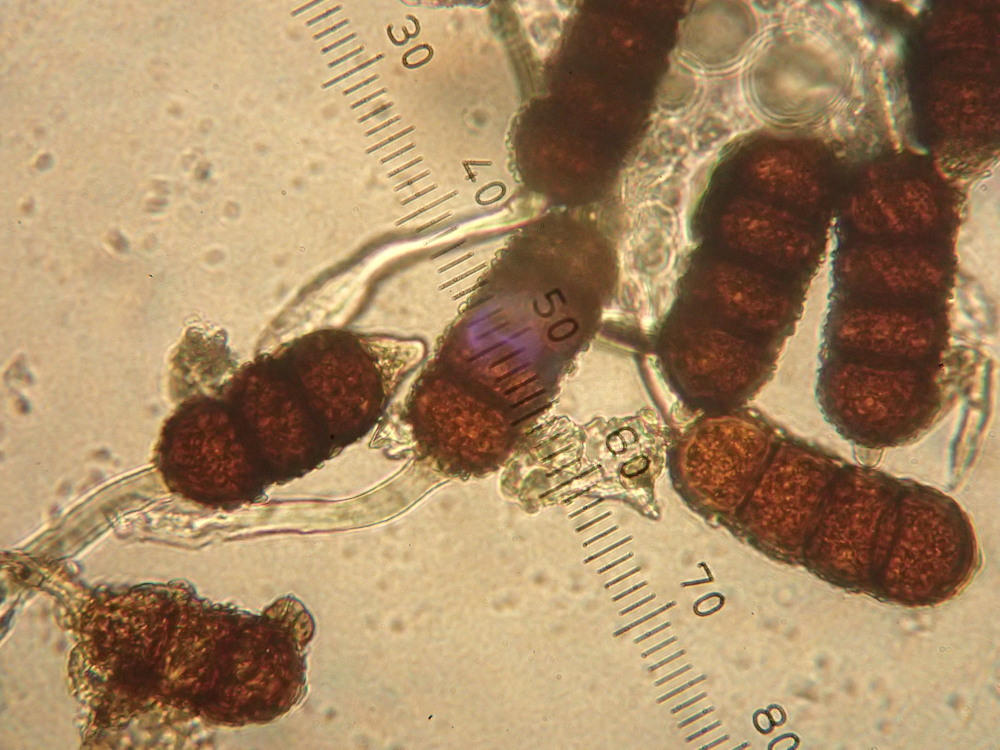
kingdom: Fungi
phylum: Basidiomycota
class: Pucciniomycetes
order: Pucciniales
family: Phragmidiaceae
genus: Phragmidium
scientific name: Phragmidium violaceum
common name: violet flercellerust
